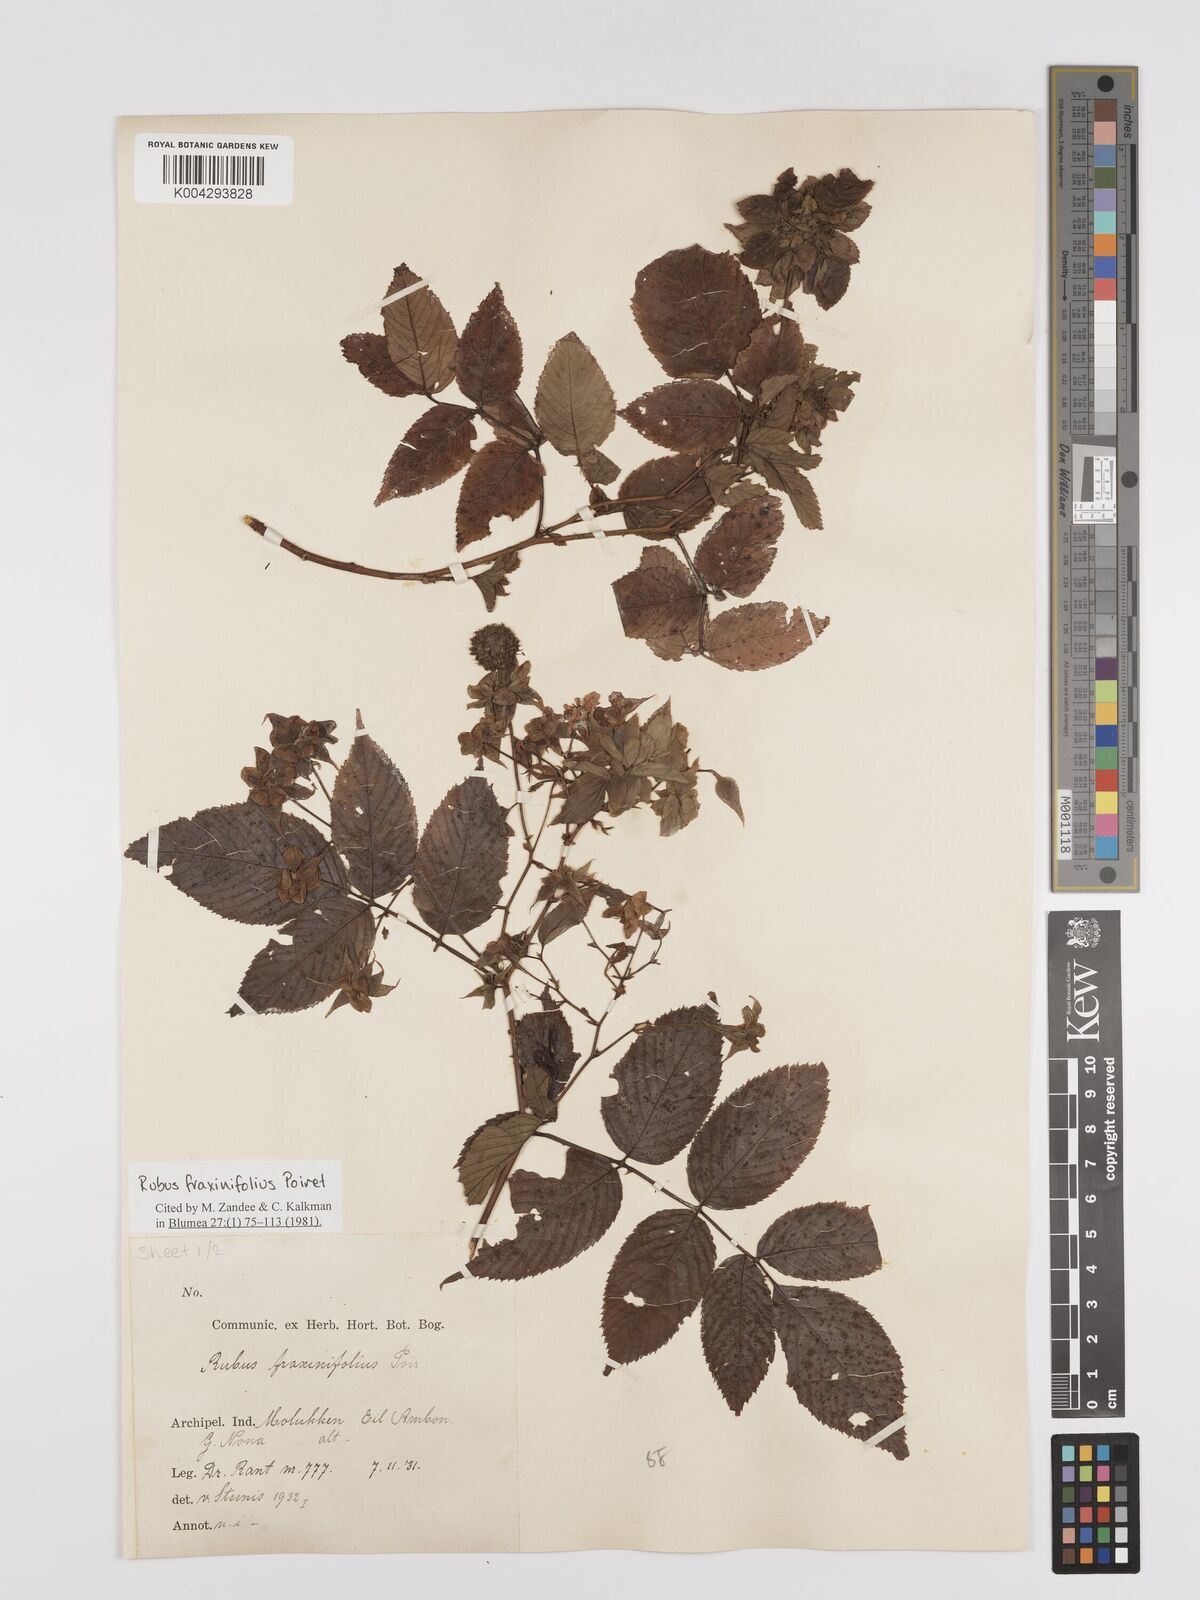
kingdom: Plantae
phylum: Tracheophyta
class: Magnoliopsida
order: Rosales
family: Rosaceae
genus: Rubus
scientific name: Rubus fraxinifolius
